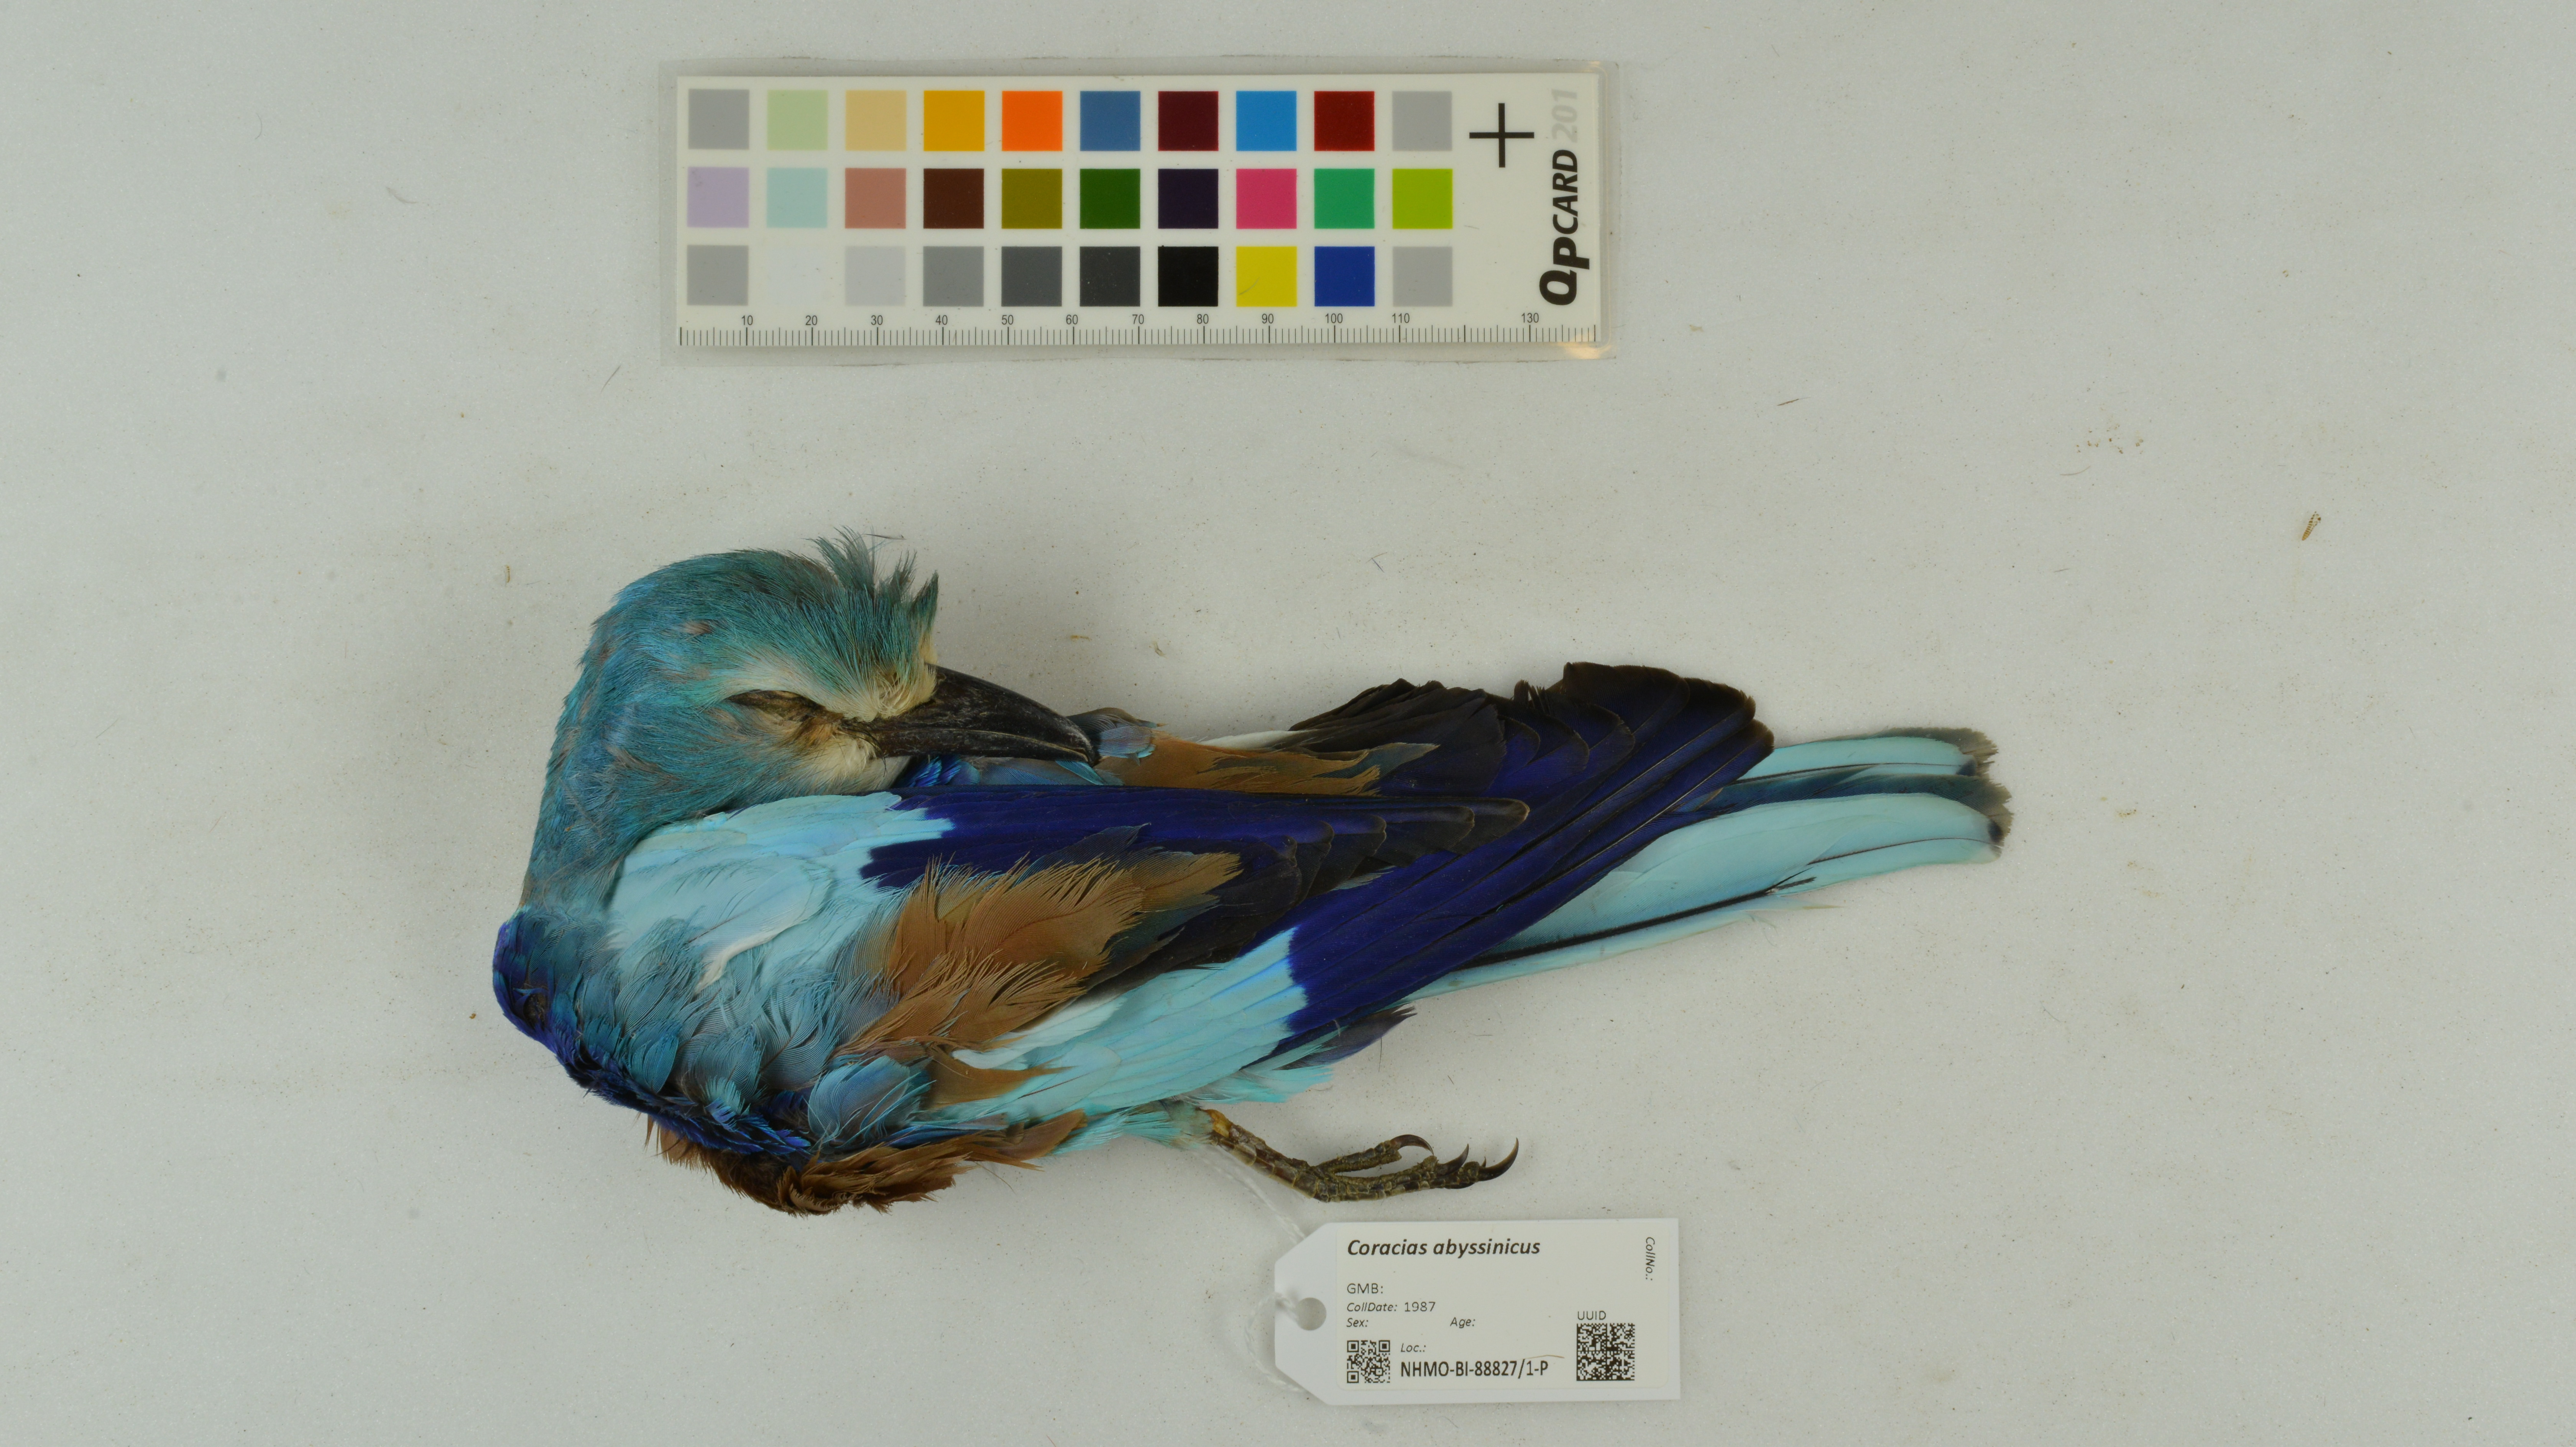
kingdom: Animalia
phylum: Chordata
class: Aves
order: Coraciiformes
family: Coraciidae
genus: Coracias
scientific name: Coracias abyssinicus
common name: Abyssinian roller
